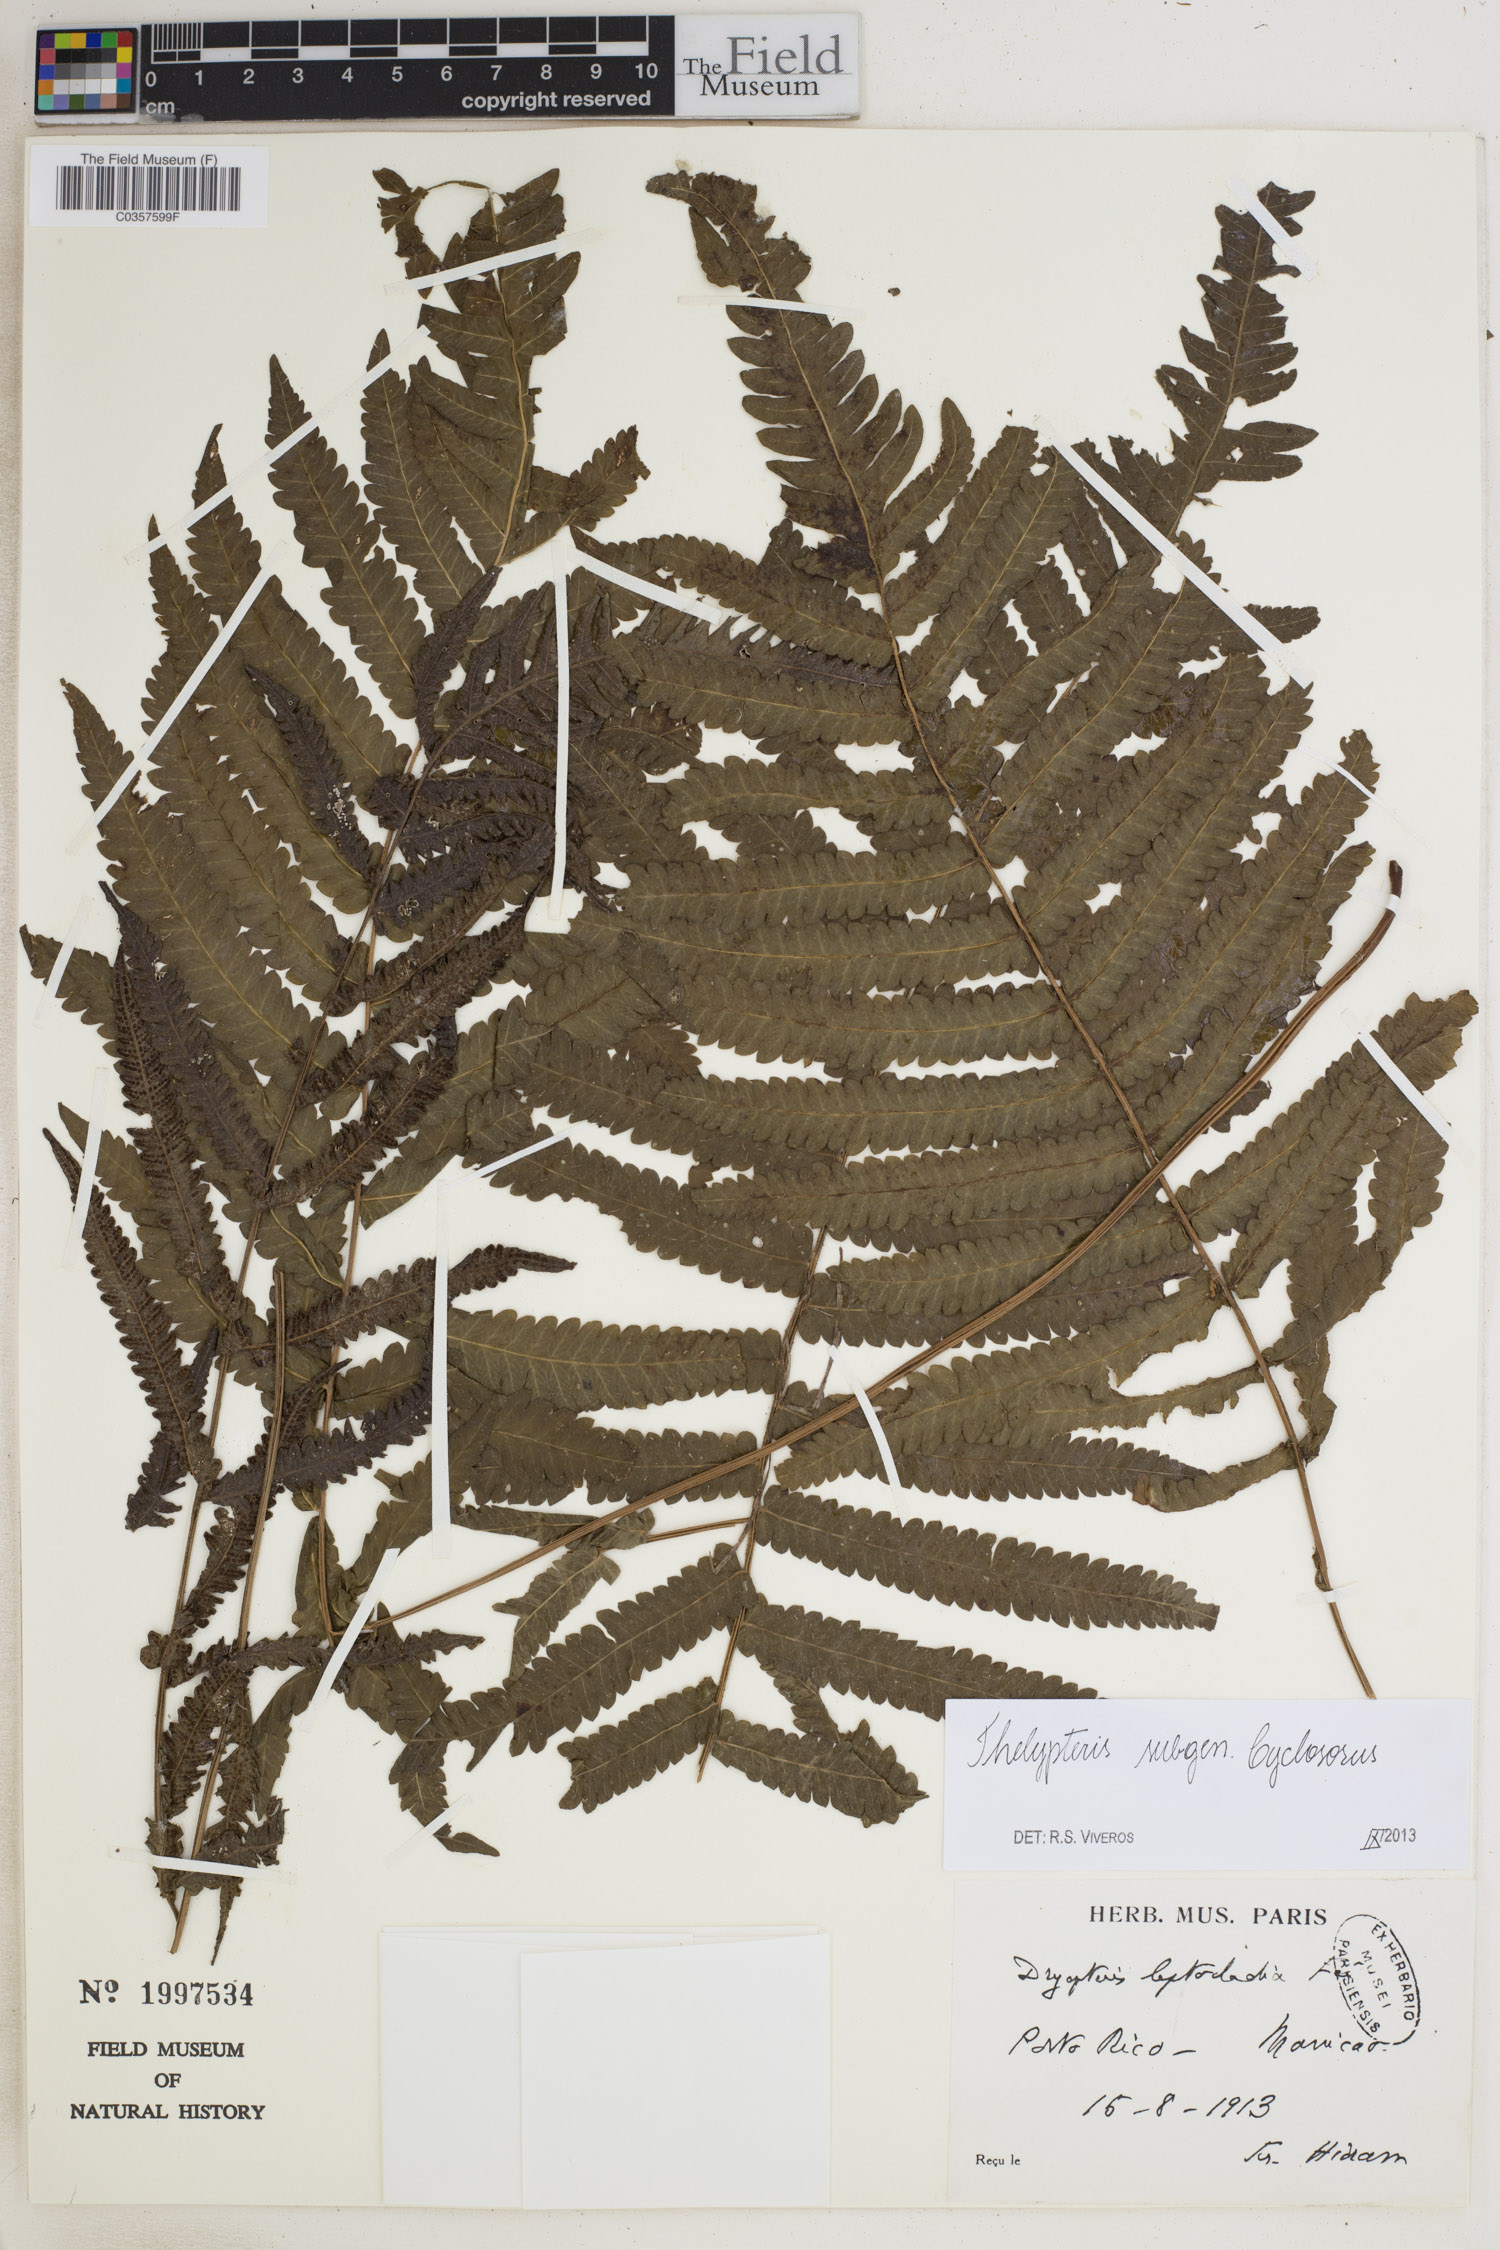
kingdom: Plantae
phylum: Tracheophyta
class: Polypodiopsida
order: Polypodiales
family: Thelypteridaceae
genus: Thelypteris
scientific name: Thelypteris
